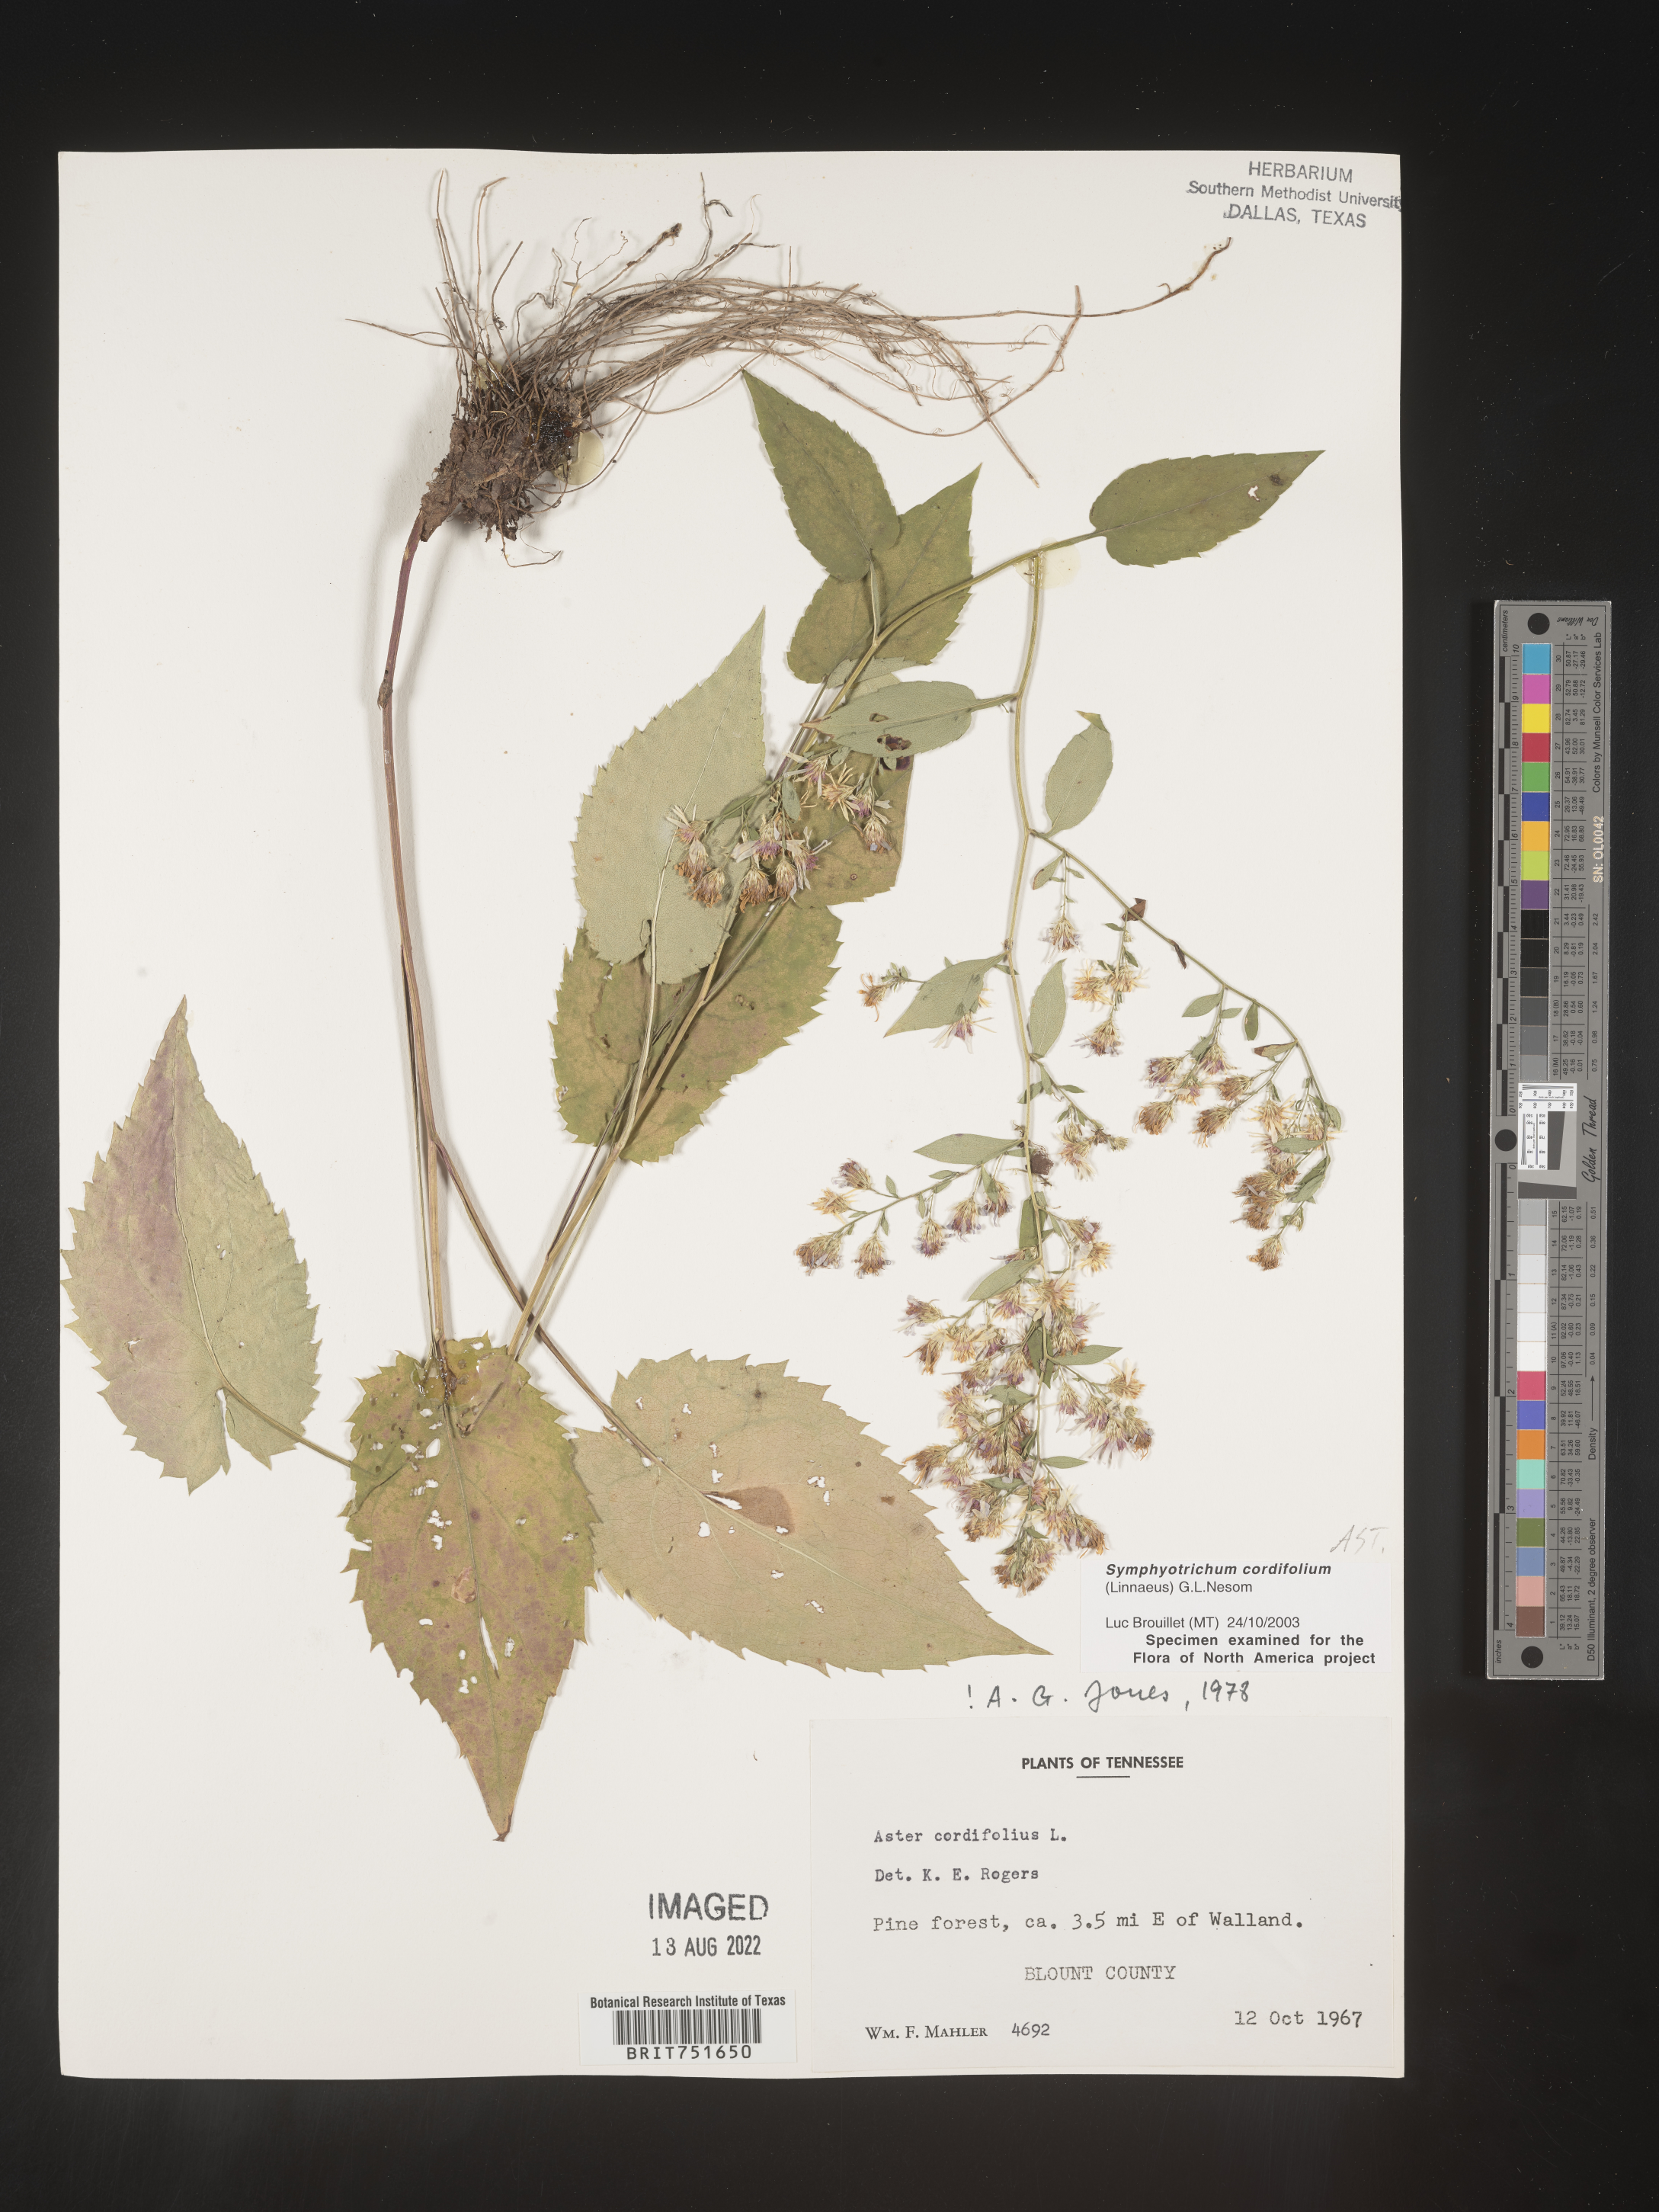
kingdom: Plantae
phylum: Tracheophyta
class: Magnoliopsida
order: Asterales
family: Asteraceae
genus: Symphyotrichum
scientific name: Symphyotrichum cordifolium
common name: Beeweed
